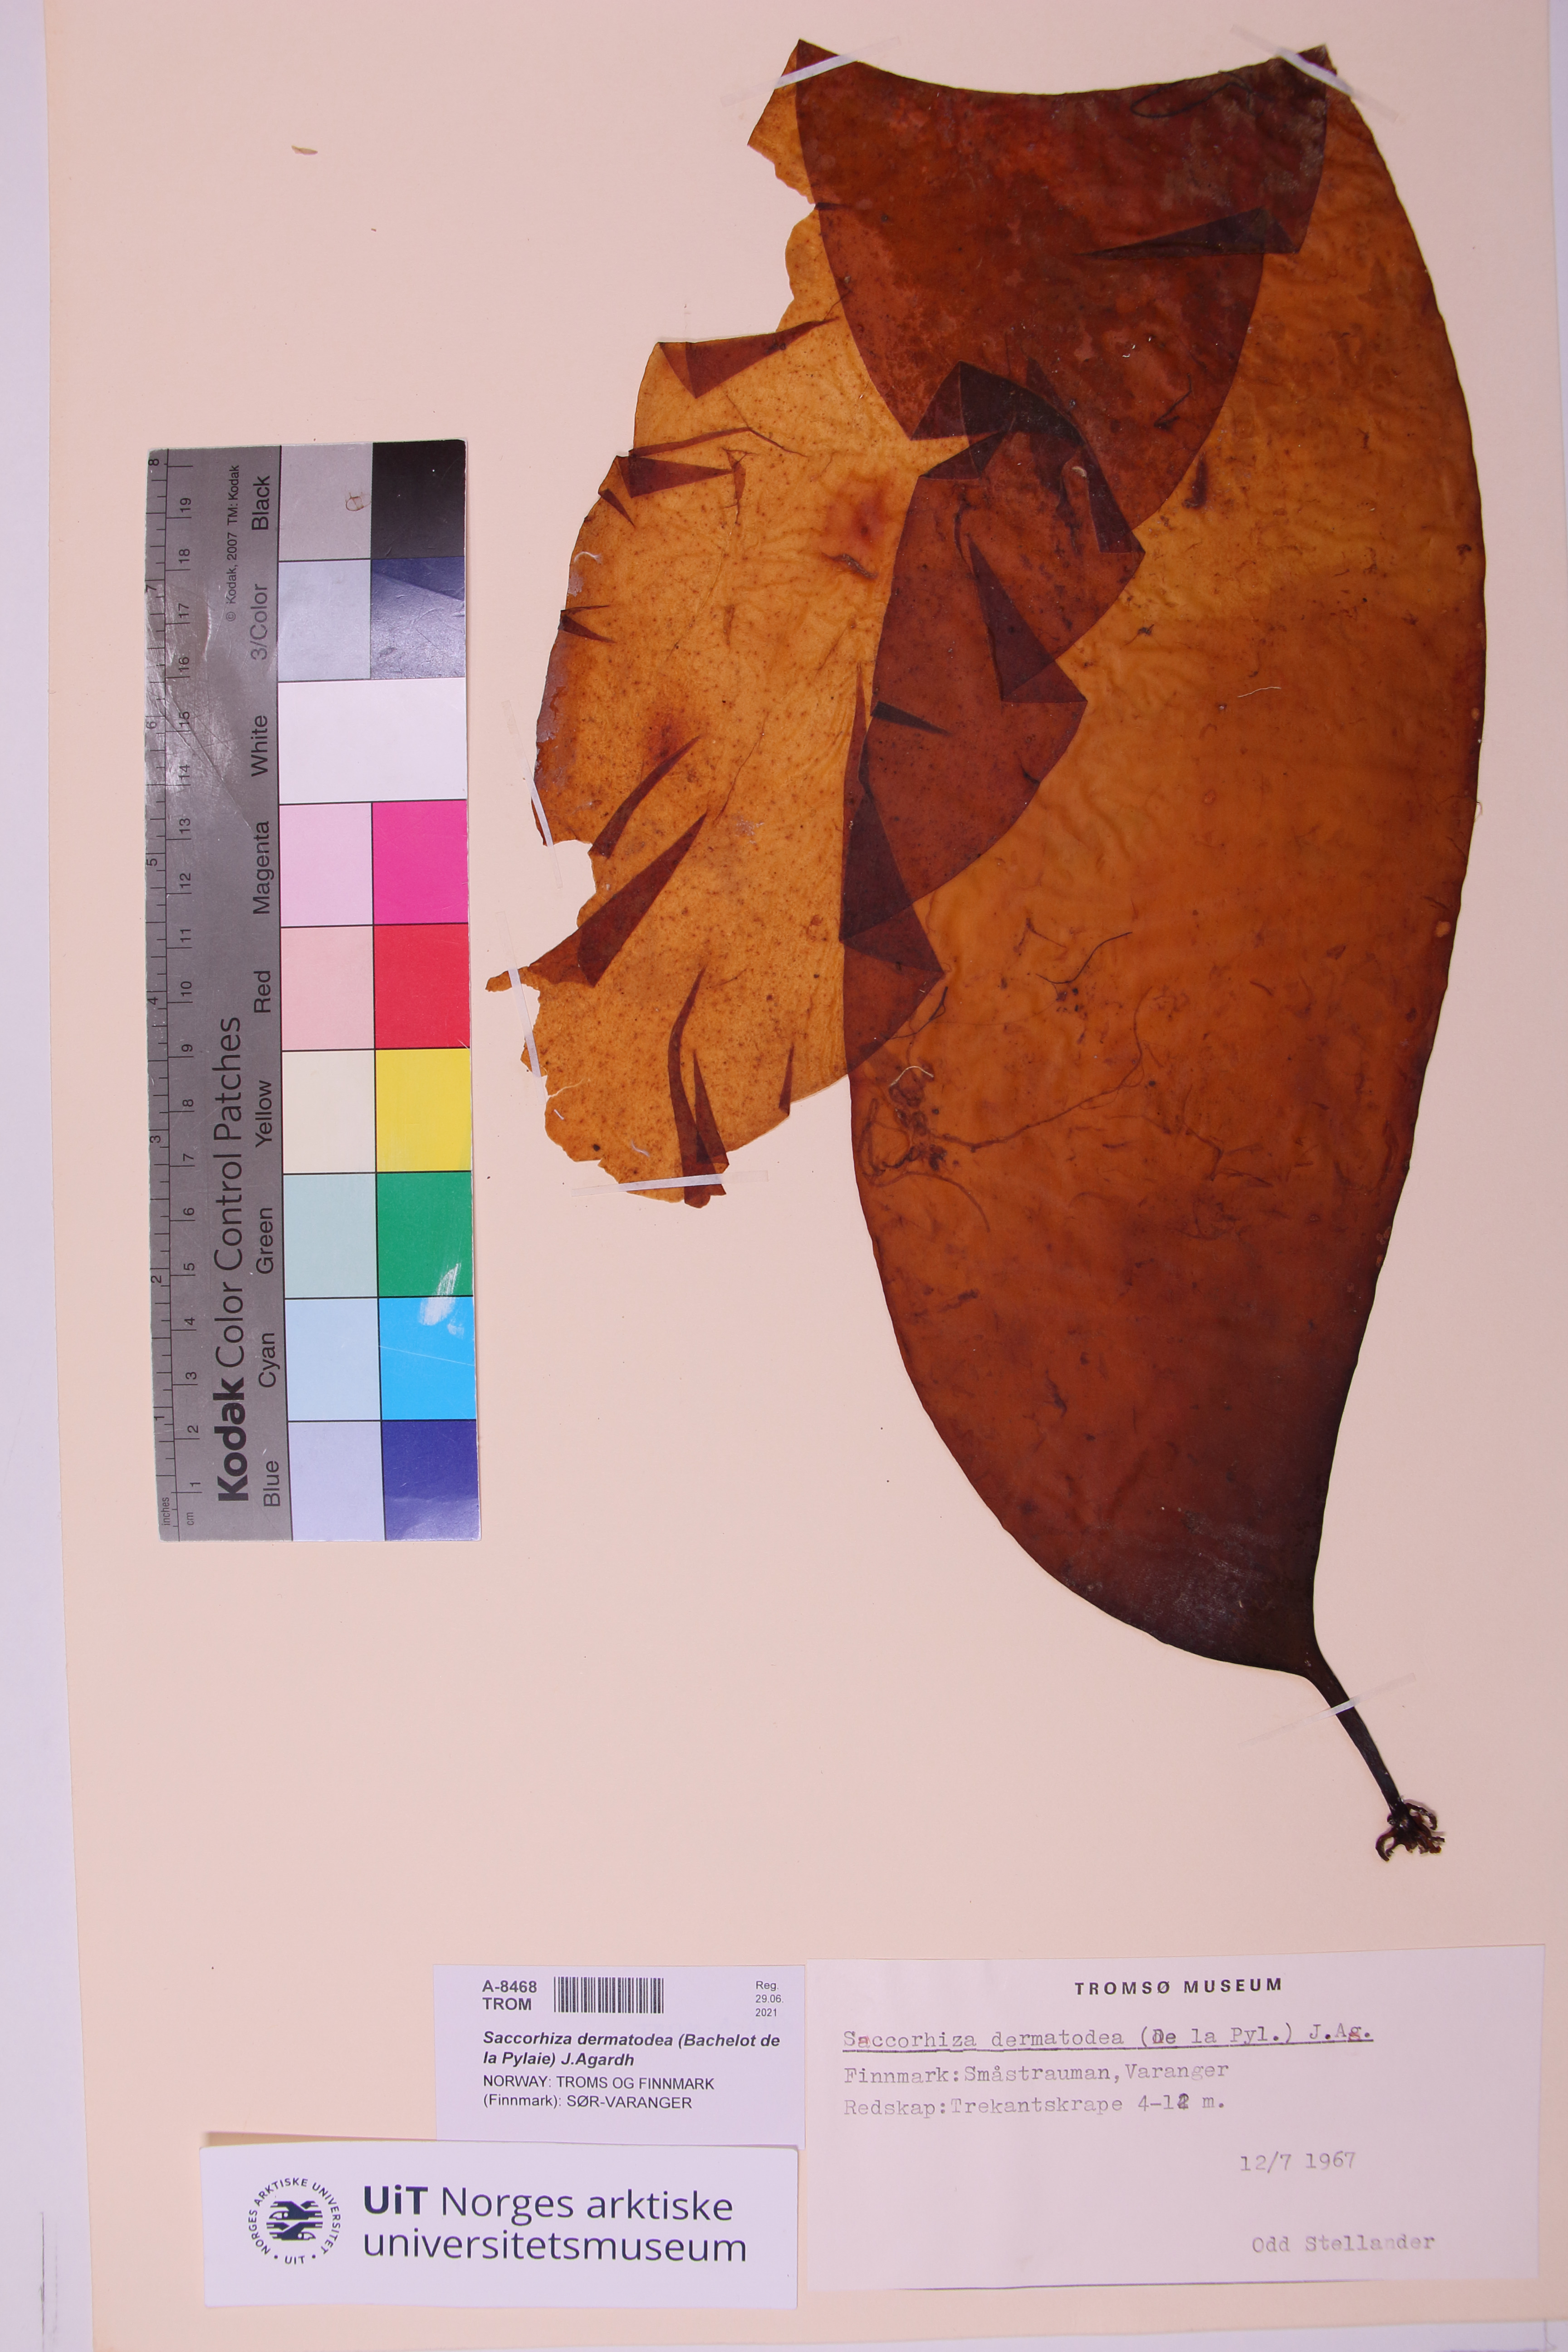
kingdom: Chromista
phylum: Ochrophyta
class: Phaeophyceae
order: Tilopteridales
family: Phyllariaceae
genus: Saccorhiza
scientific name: Saccorhiza dermatodea
